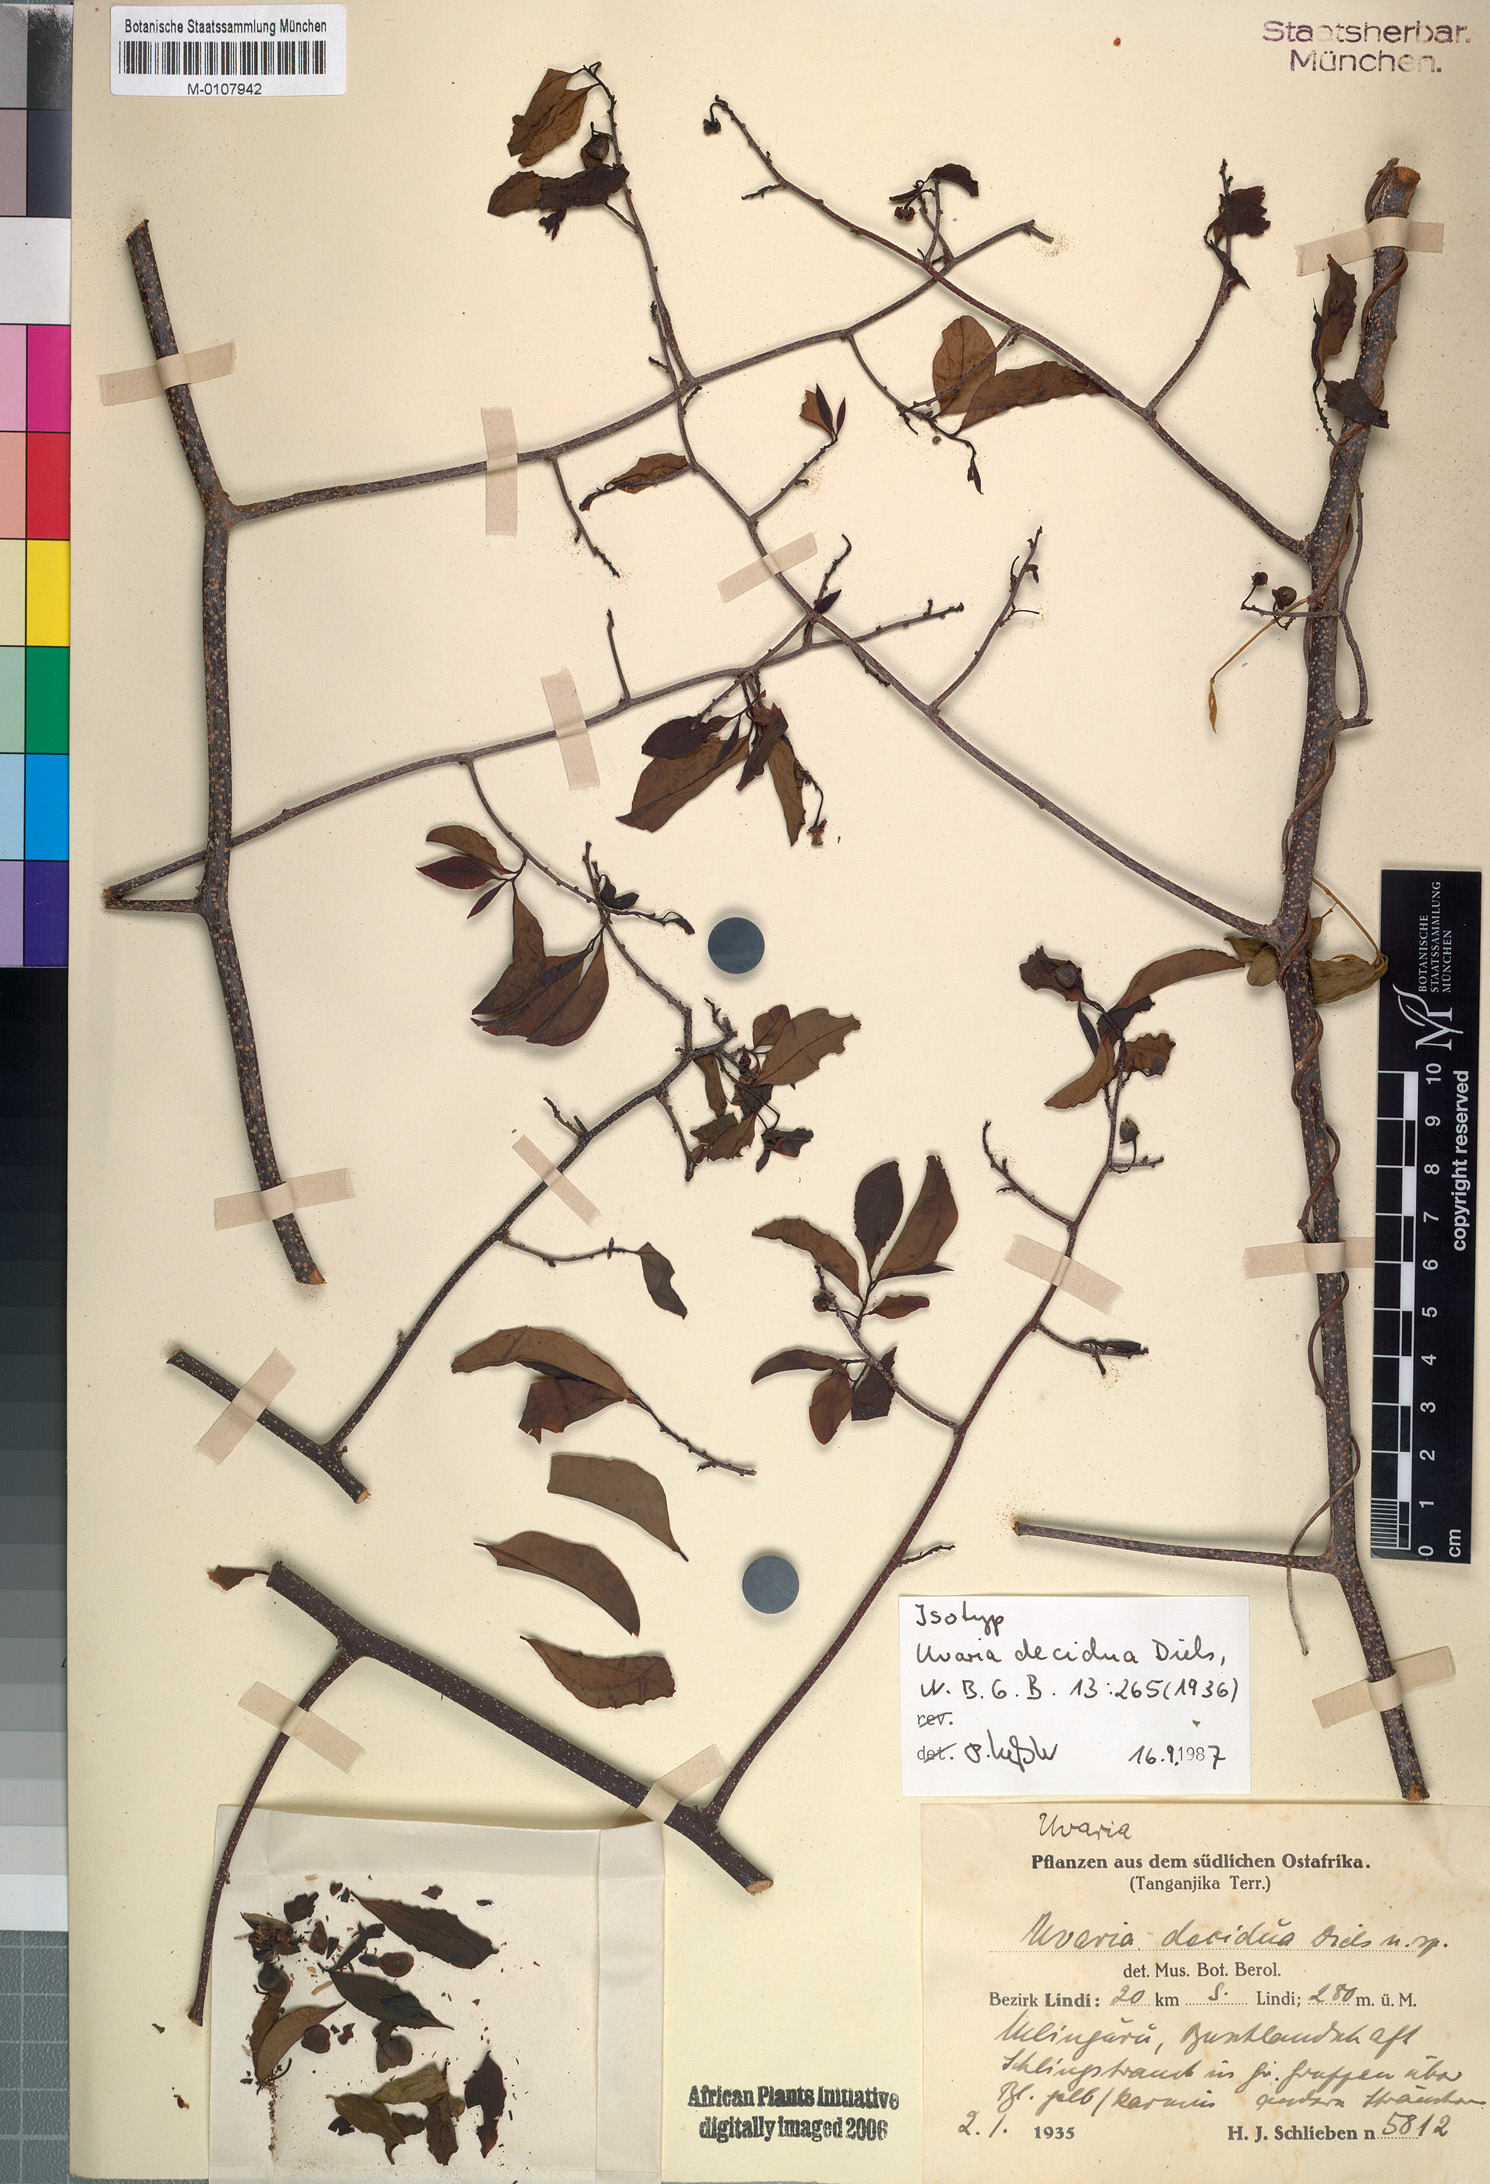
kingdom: Plantae
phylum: Tracheophyta
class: Magnoliopsida
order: Magnoliales
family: Annonaceae
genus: Uvaria
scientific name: Uvaria decidua
